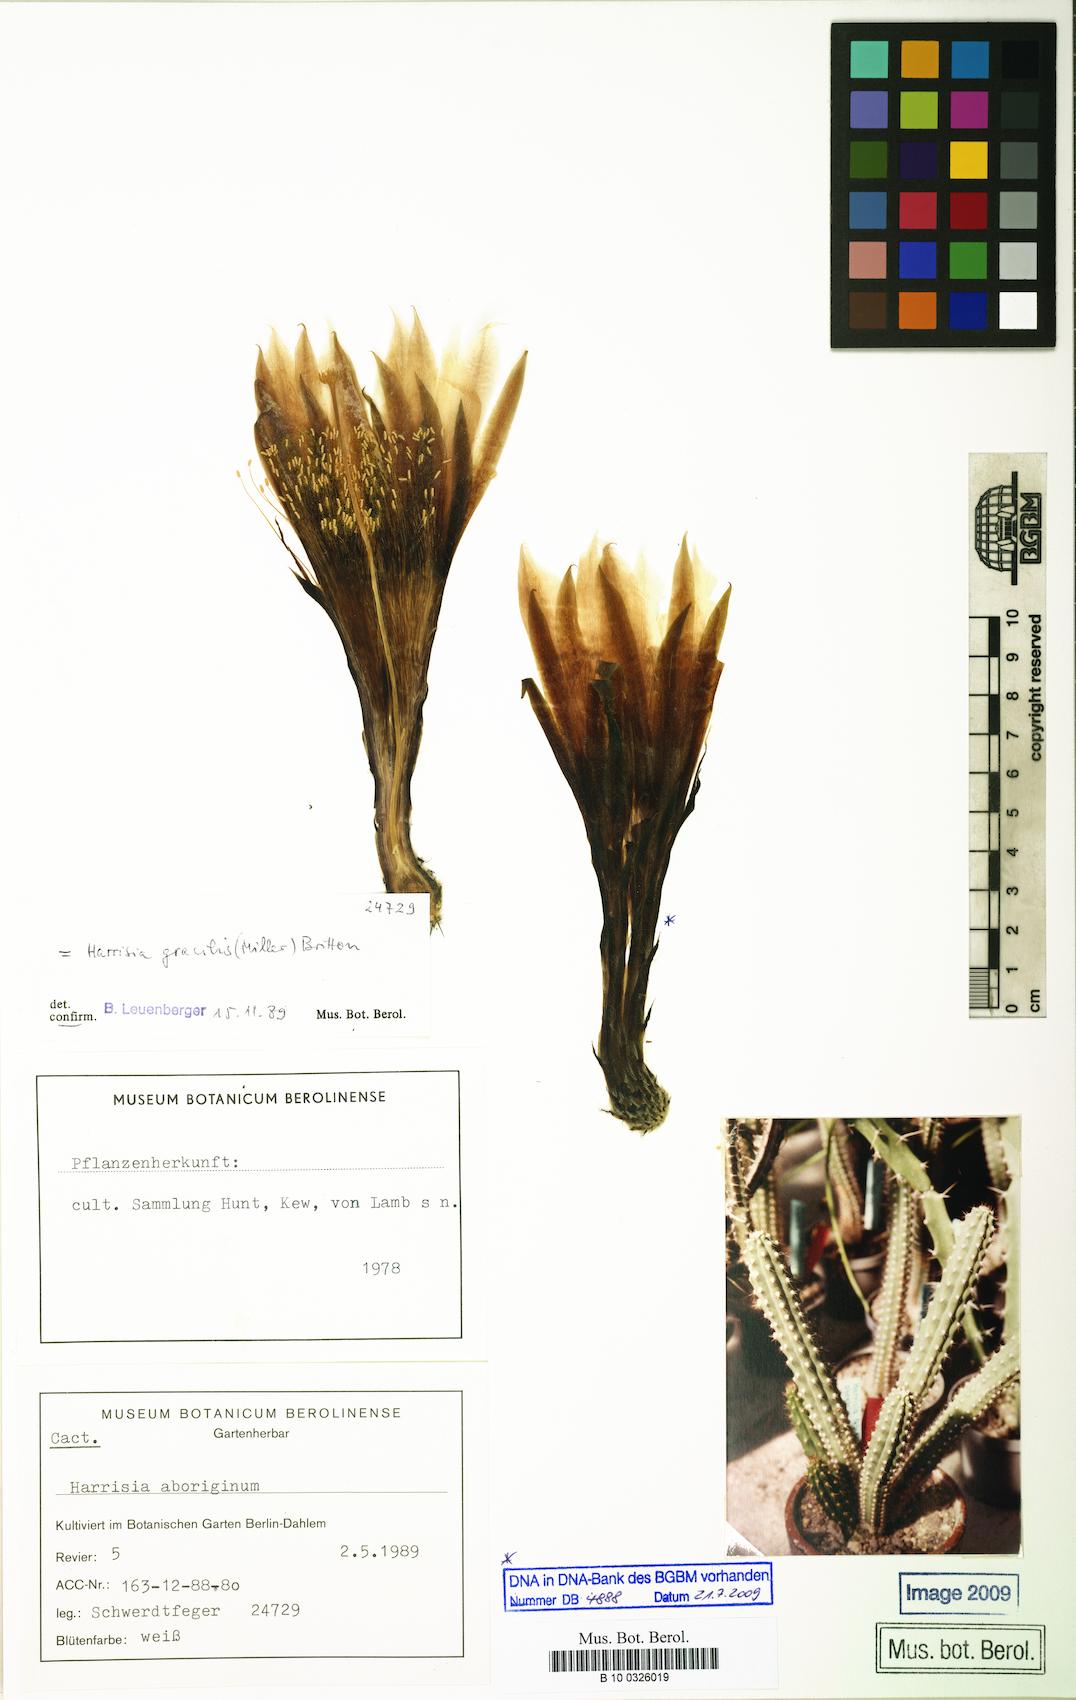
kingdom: Plantae
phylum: Tracheophyta
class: Magnoliopsida
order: Caryophyllales
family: Cactaceae
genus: Harrisia
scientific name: Harrisia gracilis
